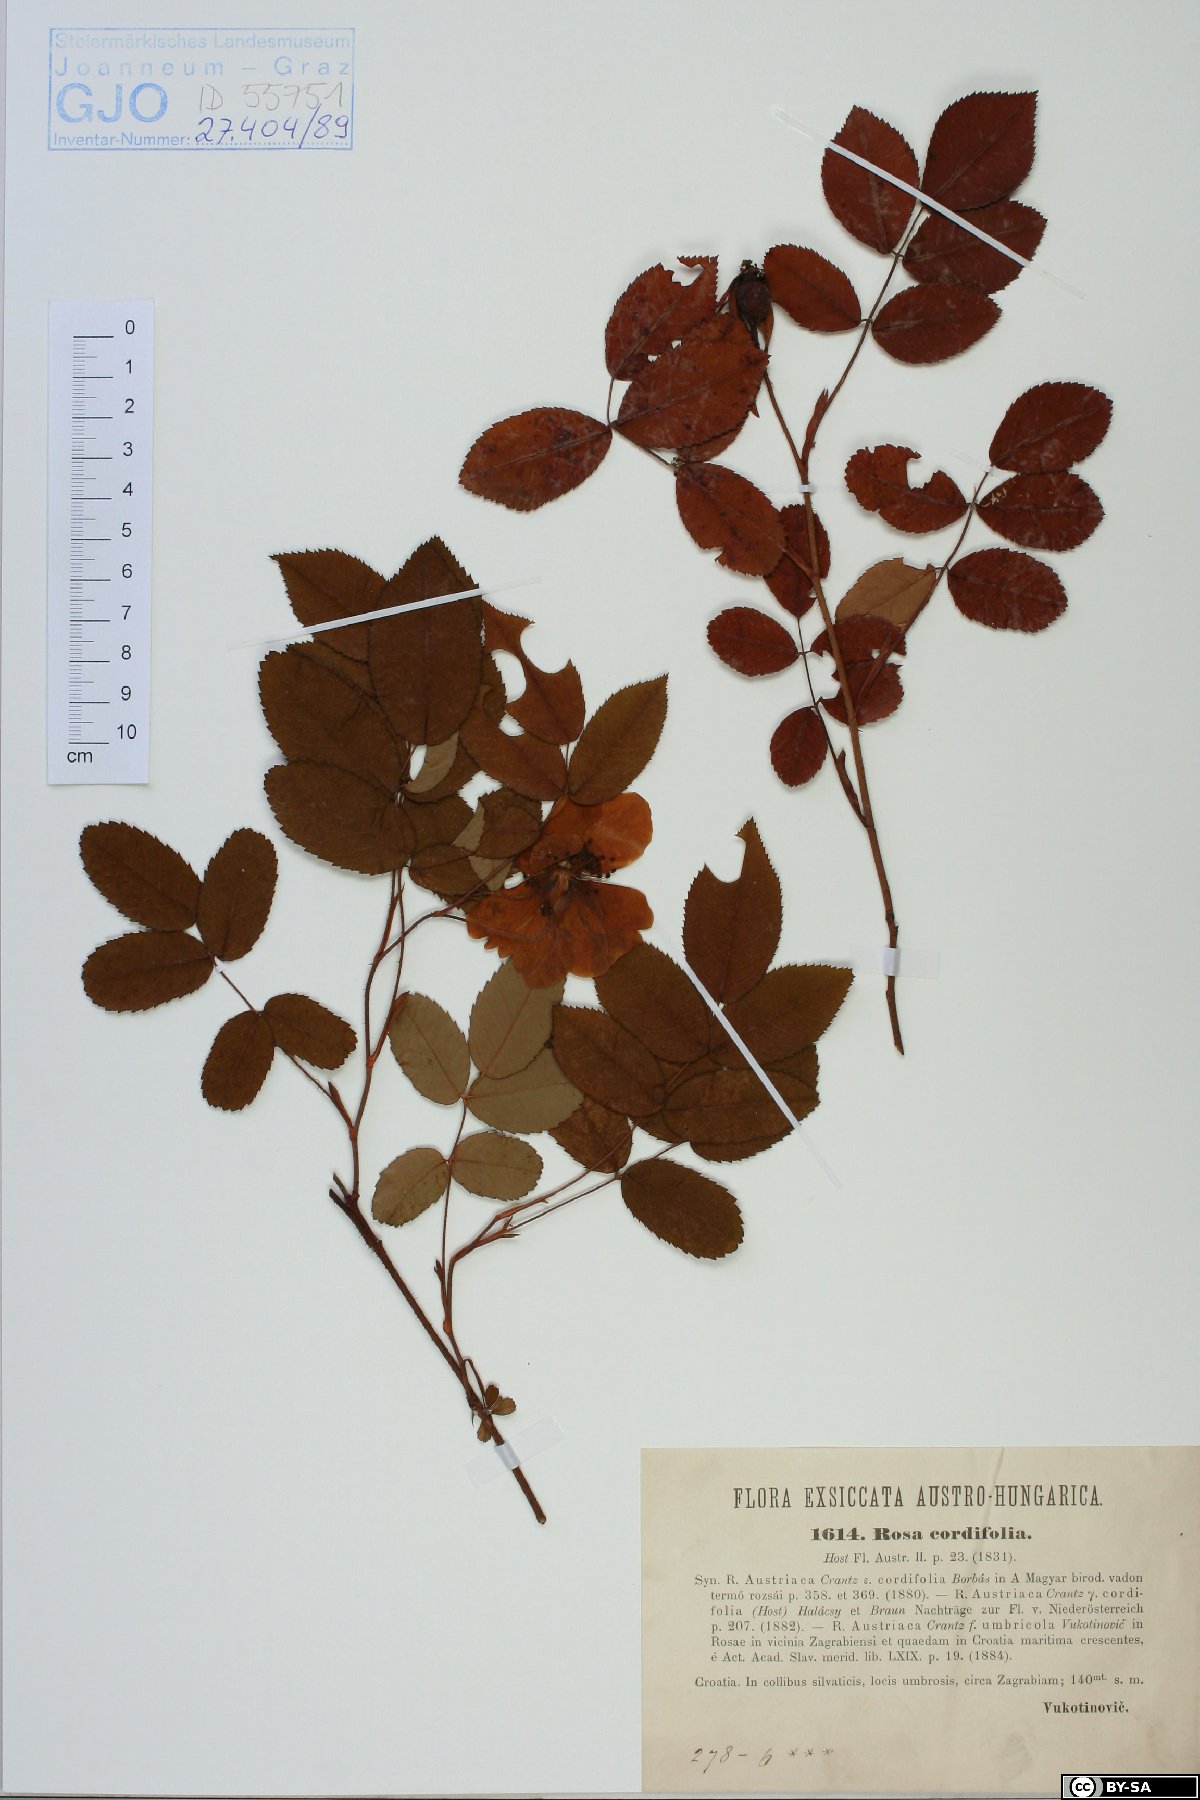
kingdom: Plantae
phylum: Tracheophyta
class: Magnoliopsida
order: Rosales
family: Rosaceae
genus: Rosa
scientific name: Rosa gallica
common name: French rose
